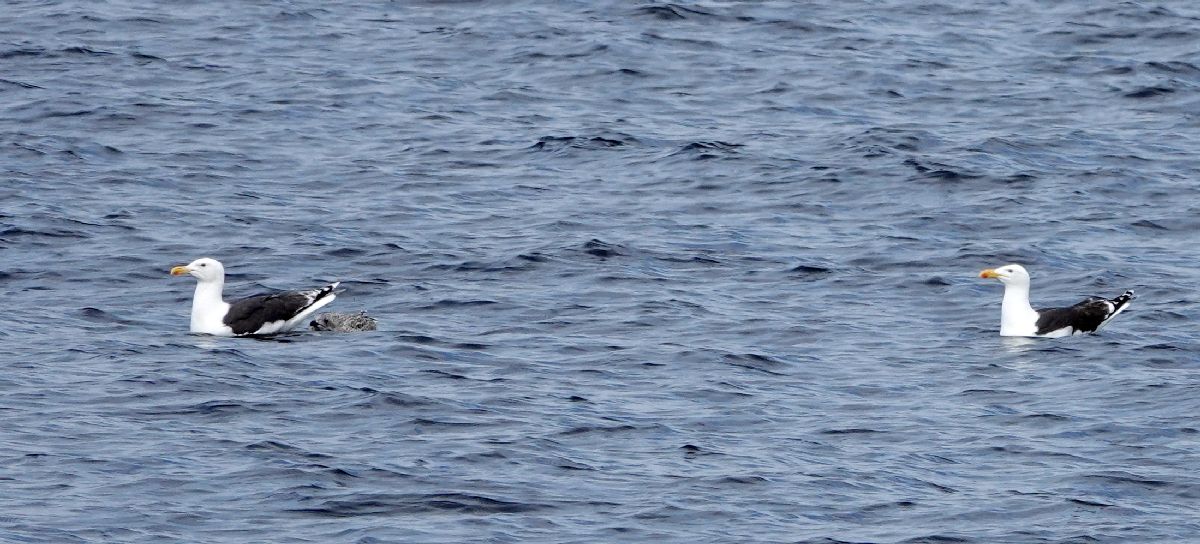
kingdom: Animalia
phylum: Chordata
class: Aves
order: Charadriiformes
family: Laridae
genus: Larus
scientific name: Larus marinus
